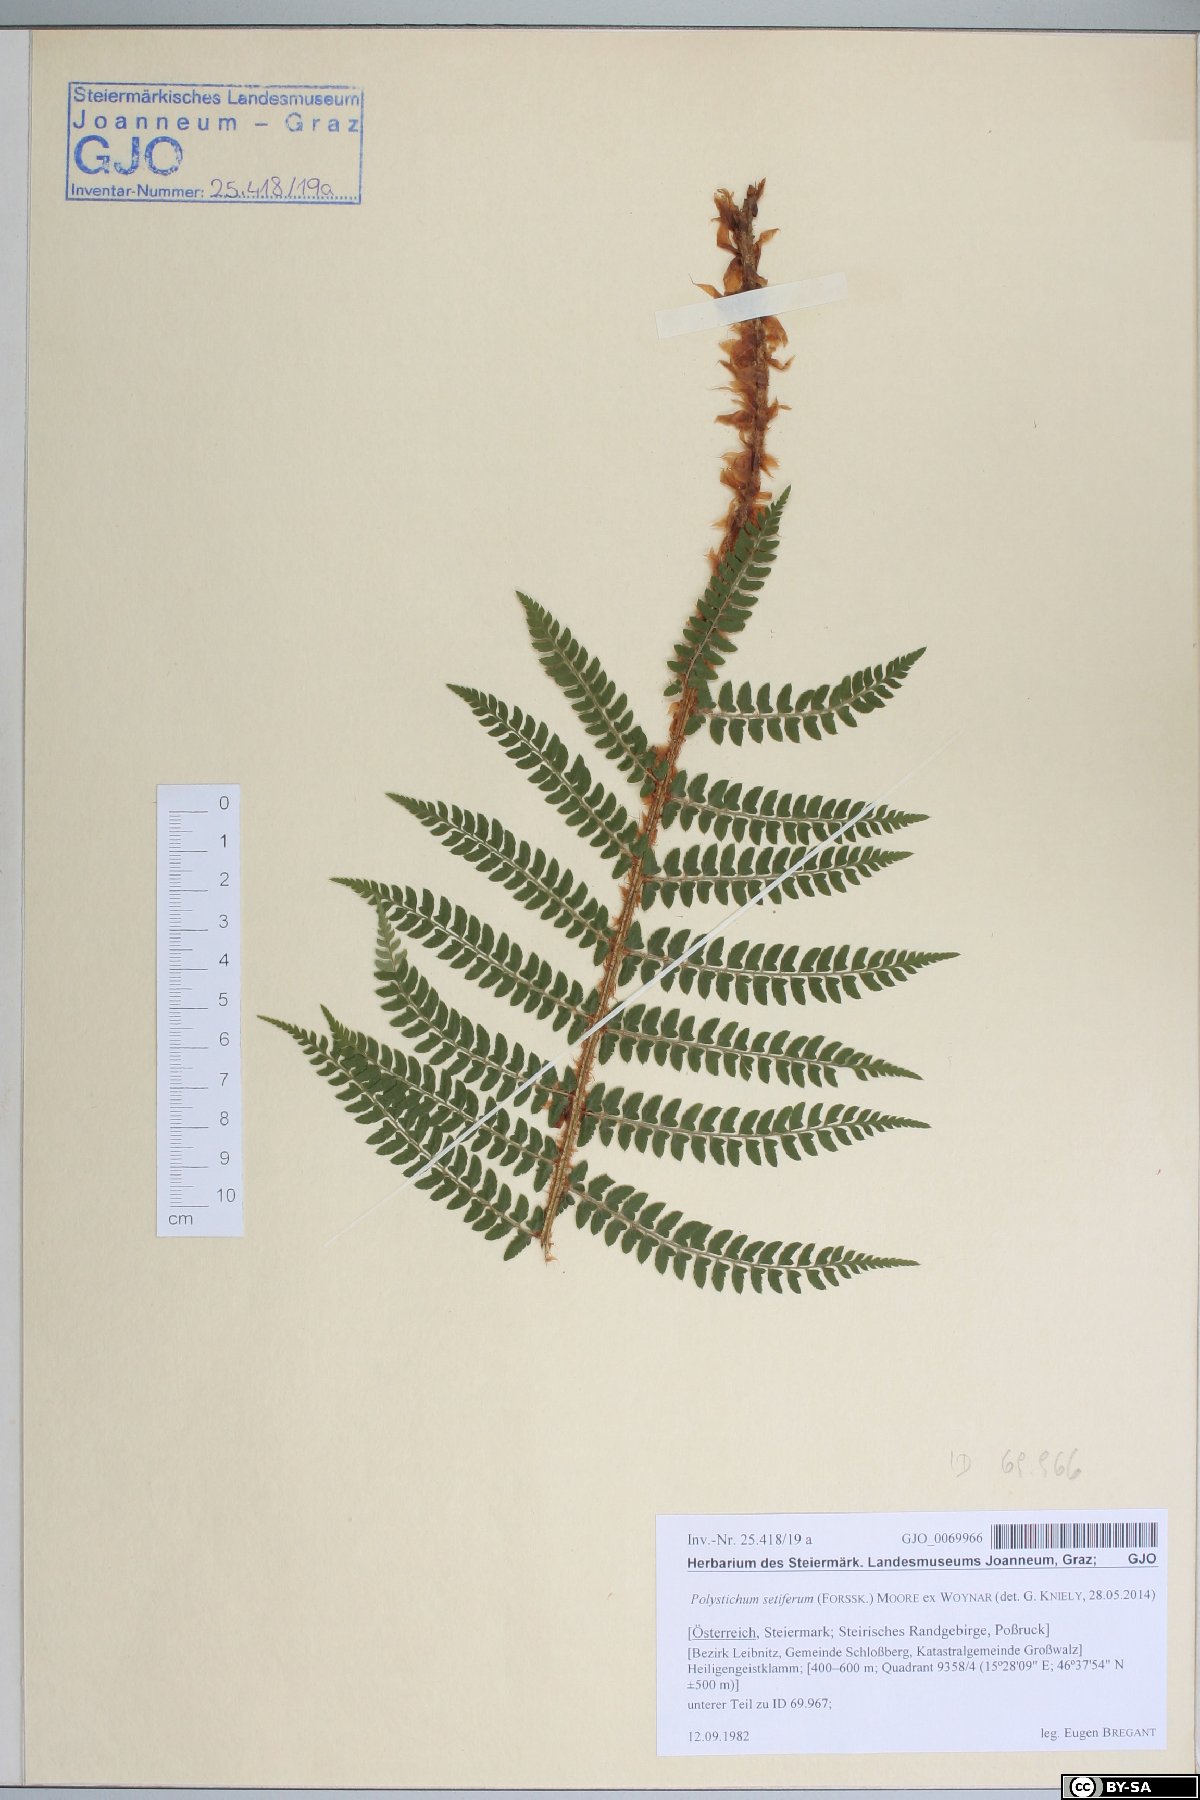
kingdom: Plantae
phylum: Tracheophyta
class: Polypodiopsida
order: Polypodiales
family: Dryopteridaceae
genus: Polystichum
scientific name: Polystichum setiferum
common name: Soft shield-fern
